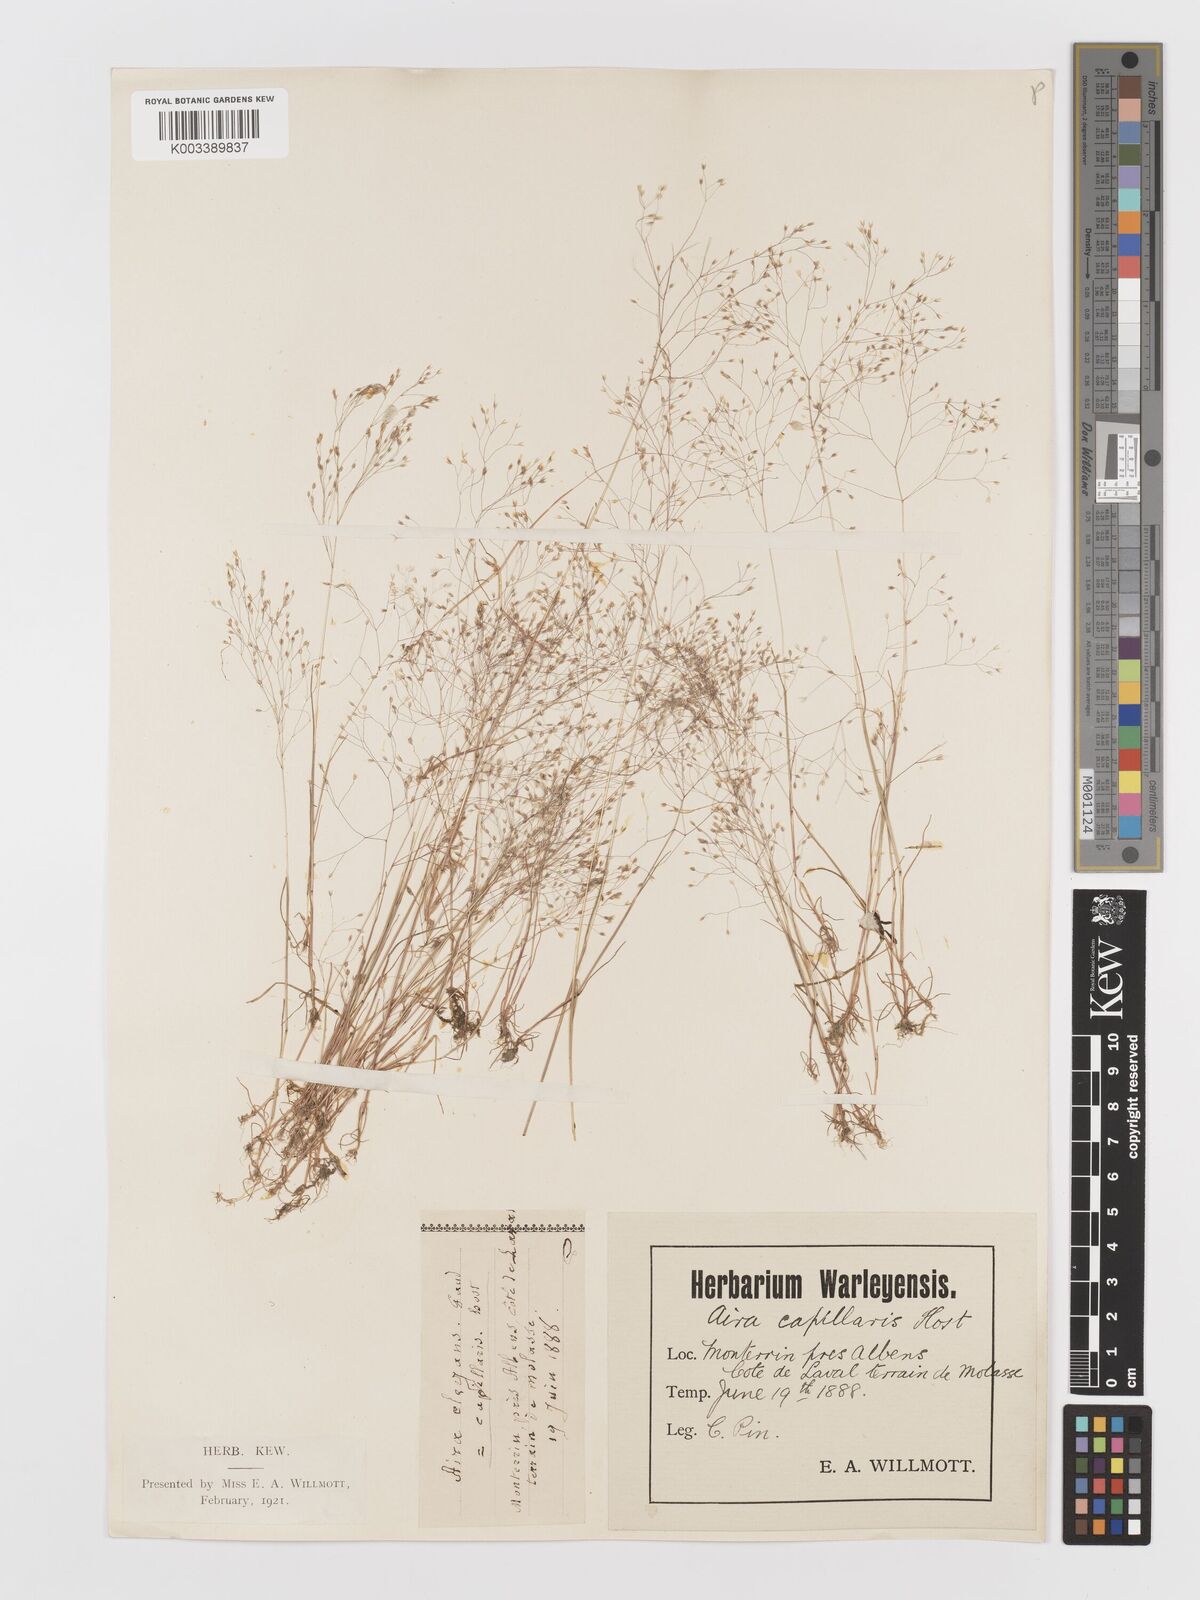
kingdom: Plantae
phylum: Tracheophyta
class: Liliopsida
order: Poales
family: Poaceae
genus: Aira
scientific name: Aira elegans
